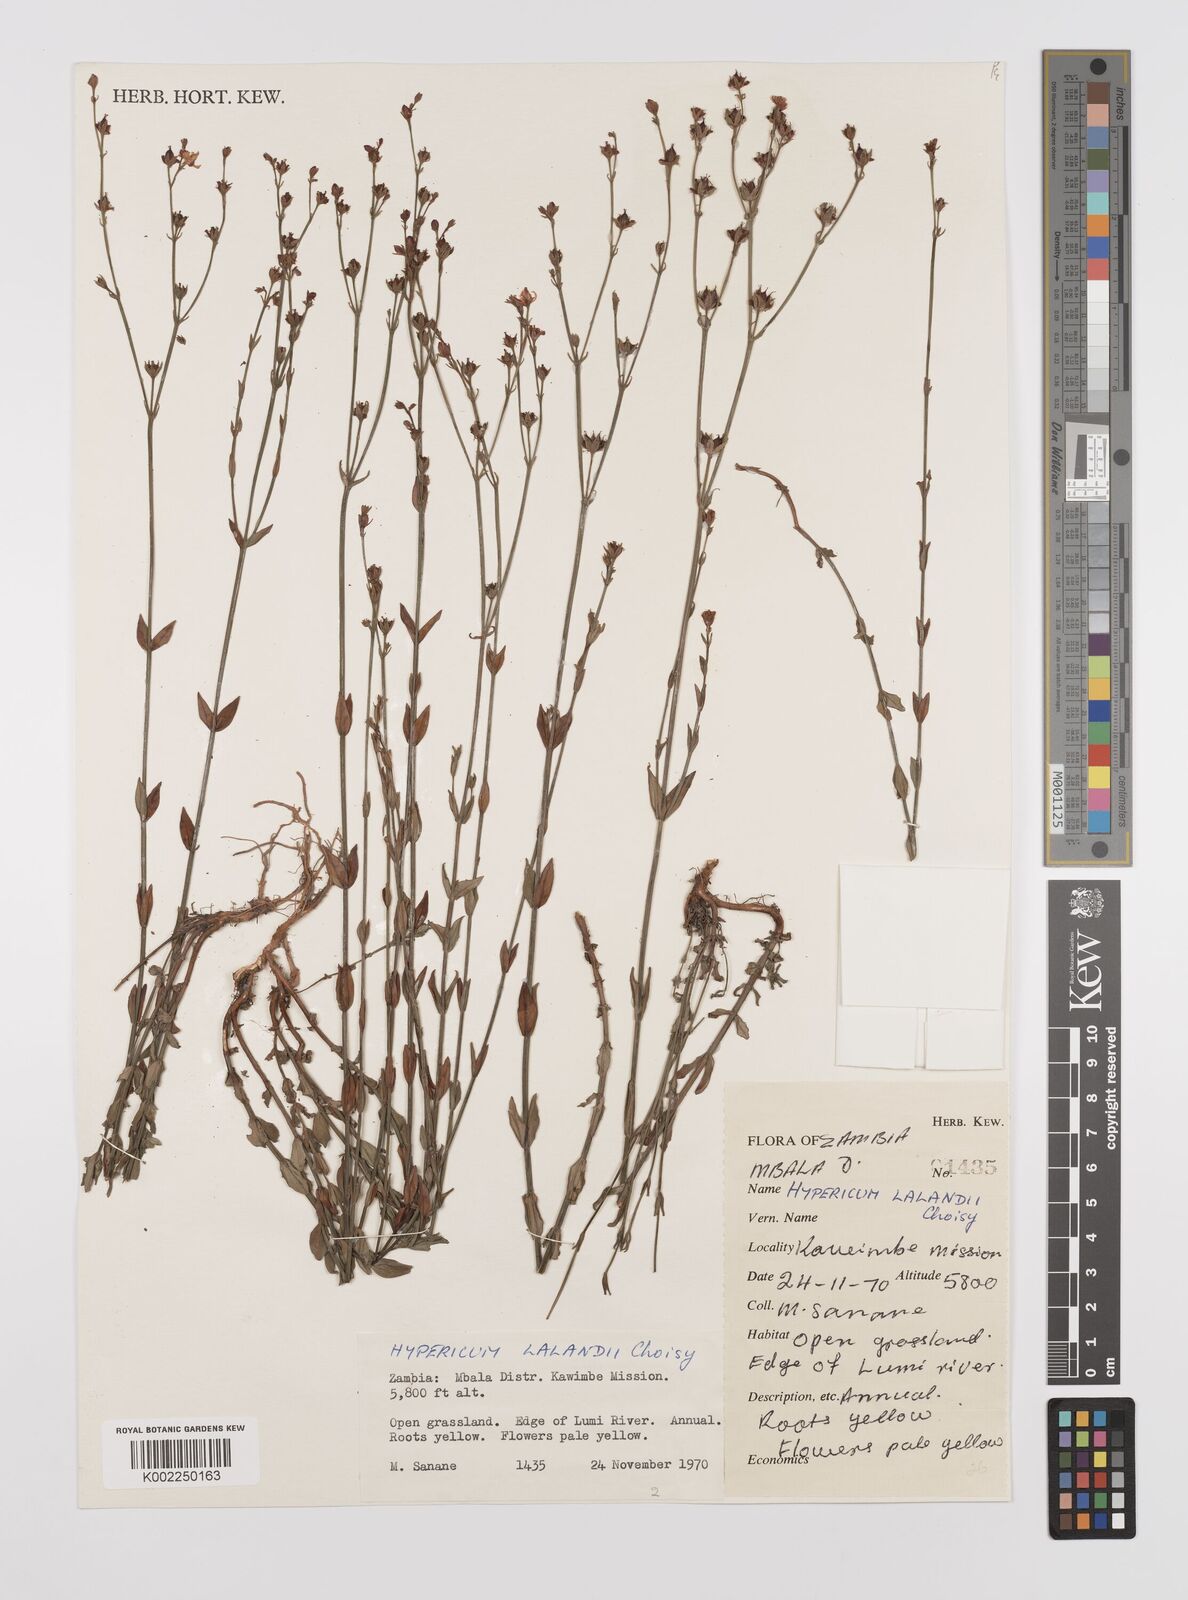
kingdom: Plantae
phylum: Tracheophyta
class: Magnoliopsida
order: Malpighiales
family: Hypericaceae
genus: Hypericum
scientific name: Hypericum lalandii
